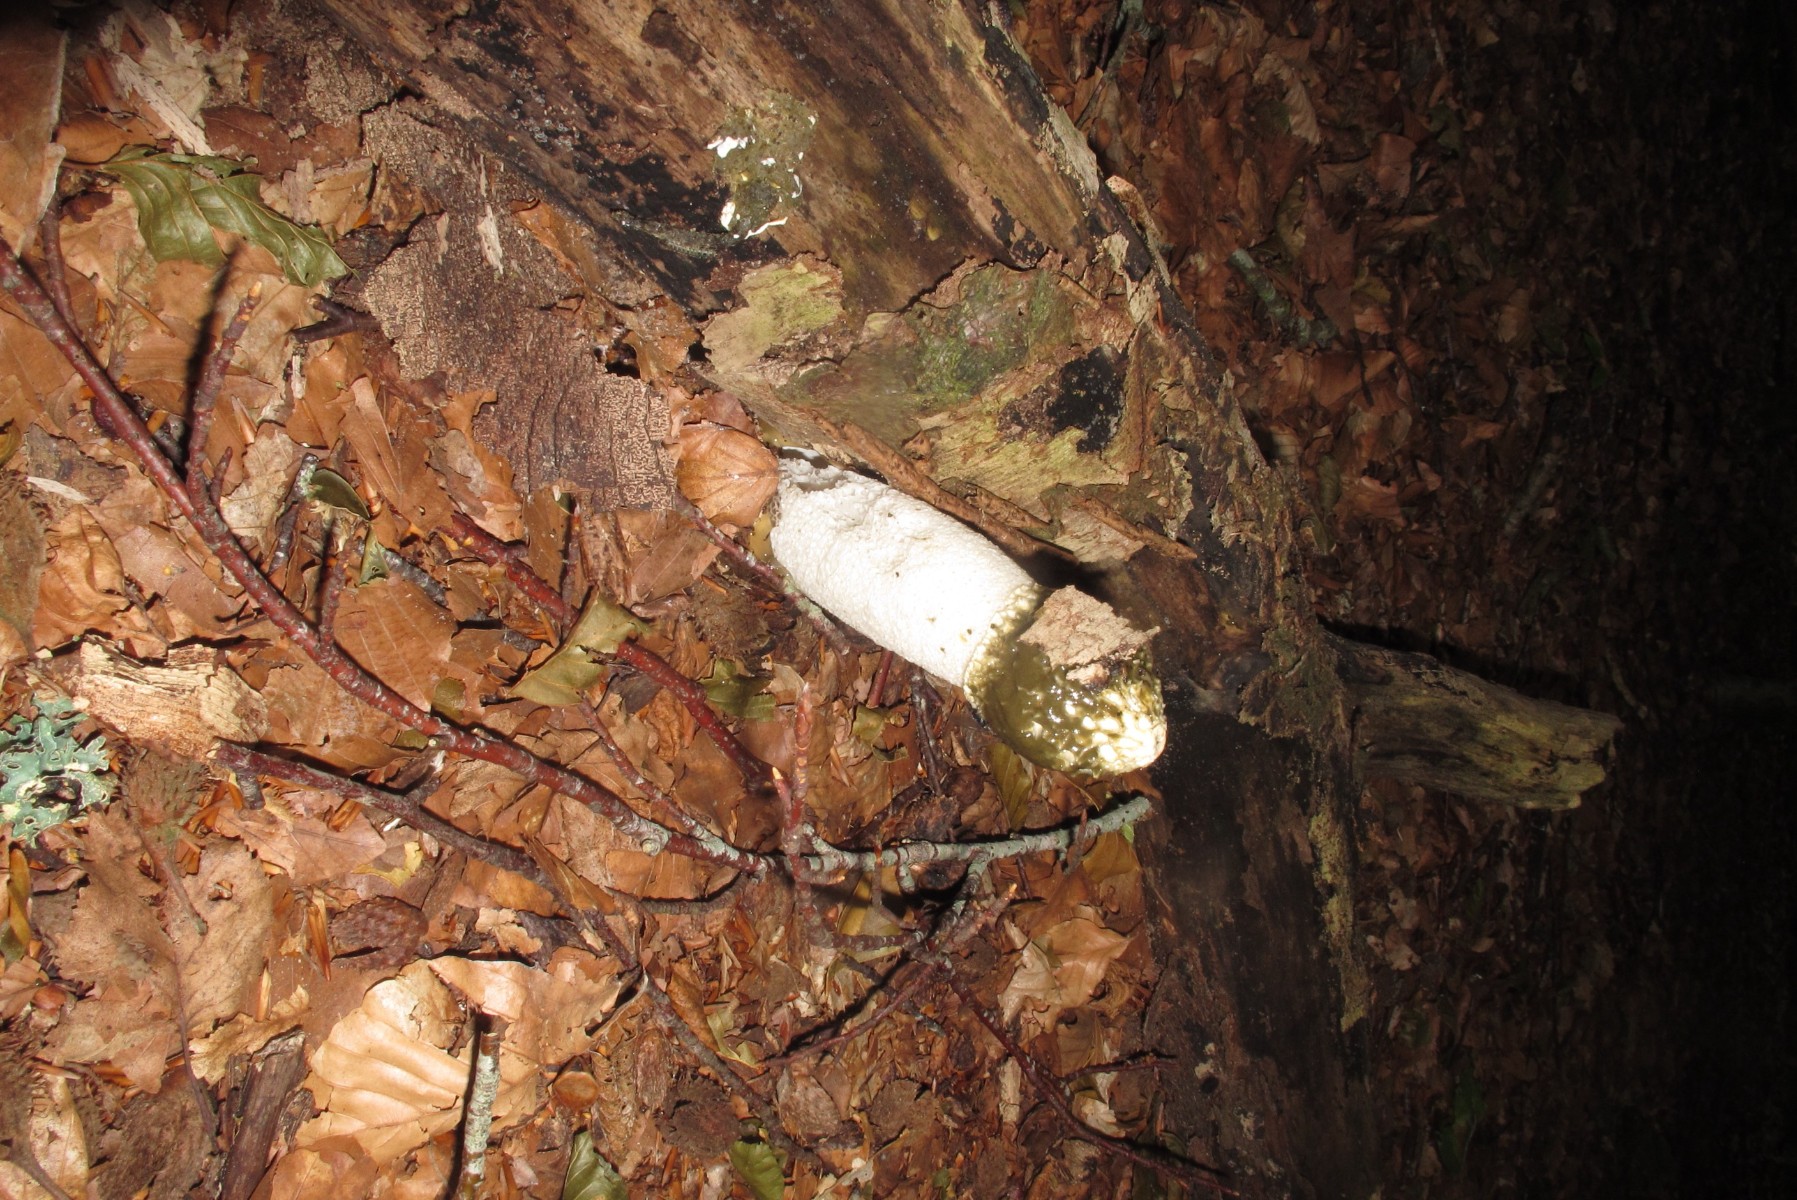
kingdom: Fungi
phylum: Basidiomycota
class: Agaricomycetes
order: Phallales
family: Phallaceae
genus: Phallus
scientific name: Phallus impudicus
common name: almindelig stinksvamp
